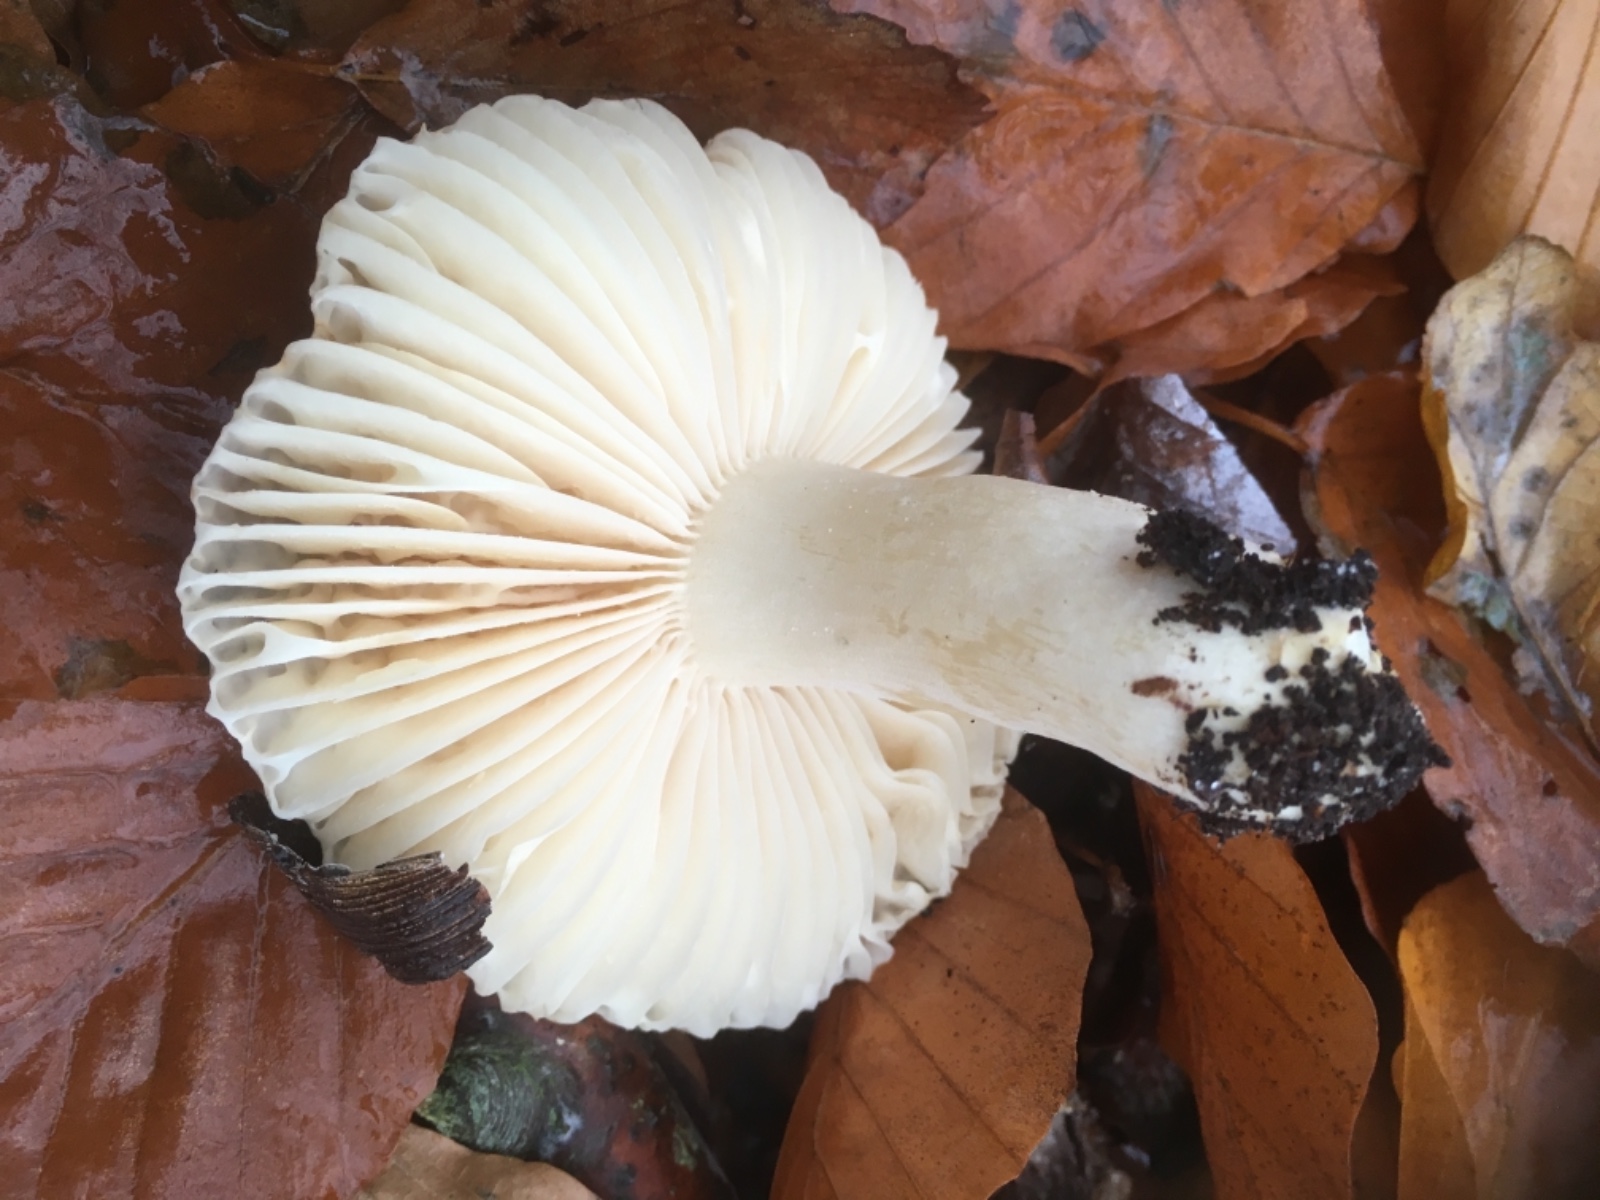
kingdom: Fungi
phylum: Basidiomycota
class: Agaricomycetes
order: Russulales
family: Russulaceae
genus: Russula
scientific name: Russula
